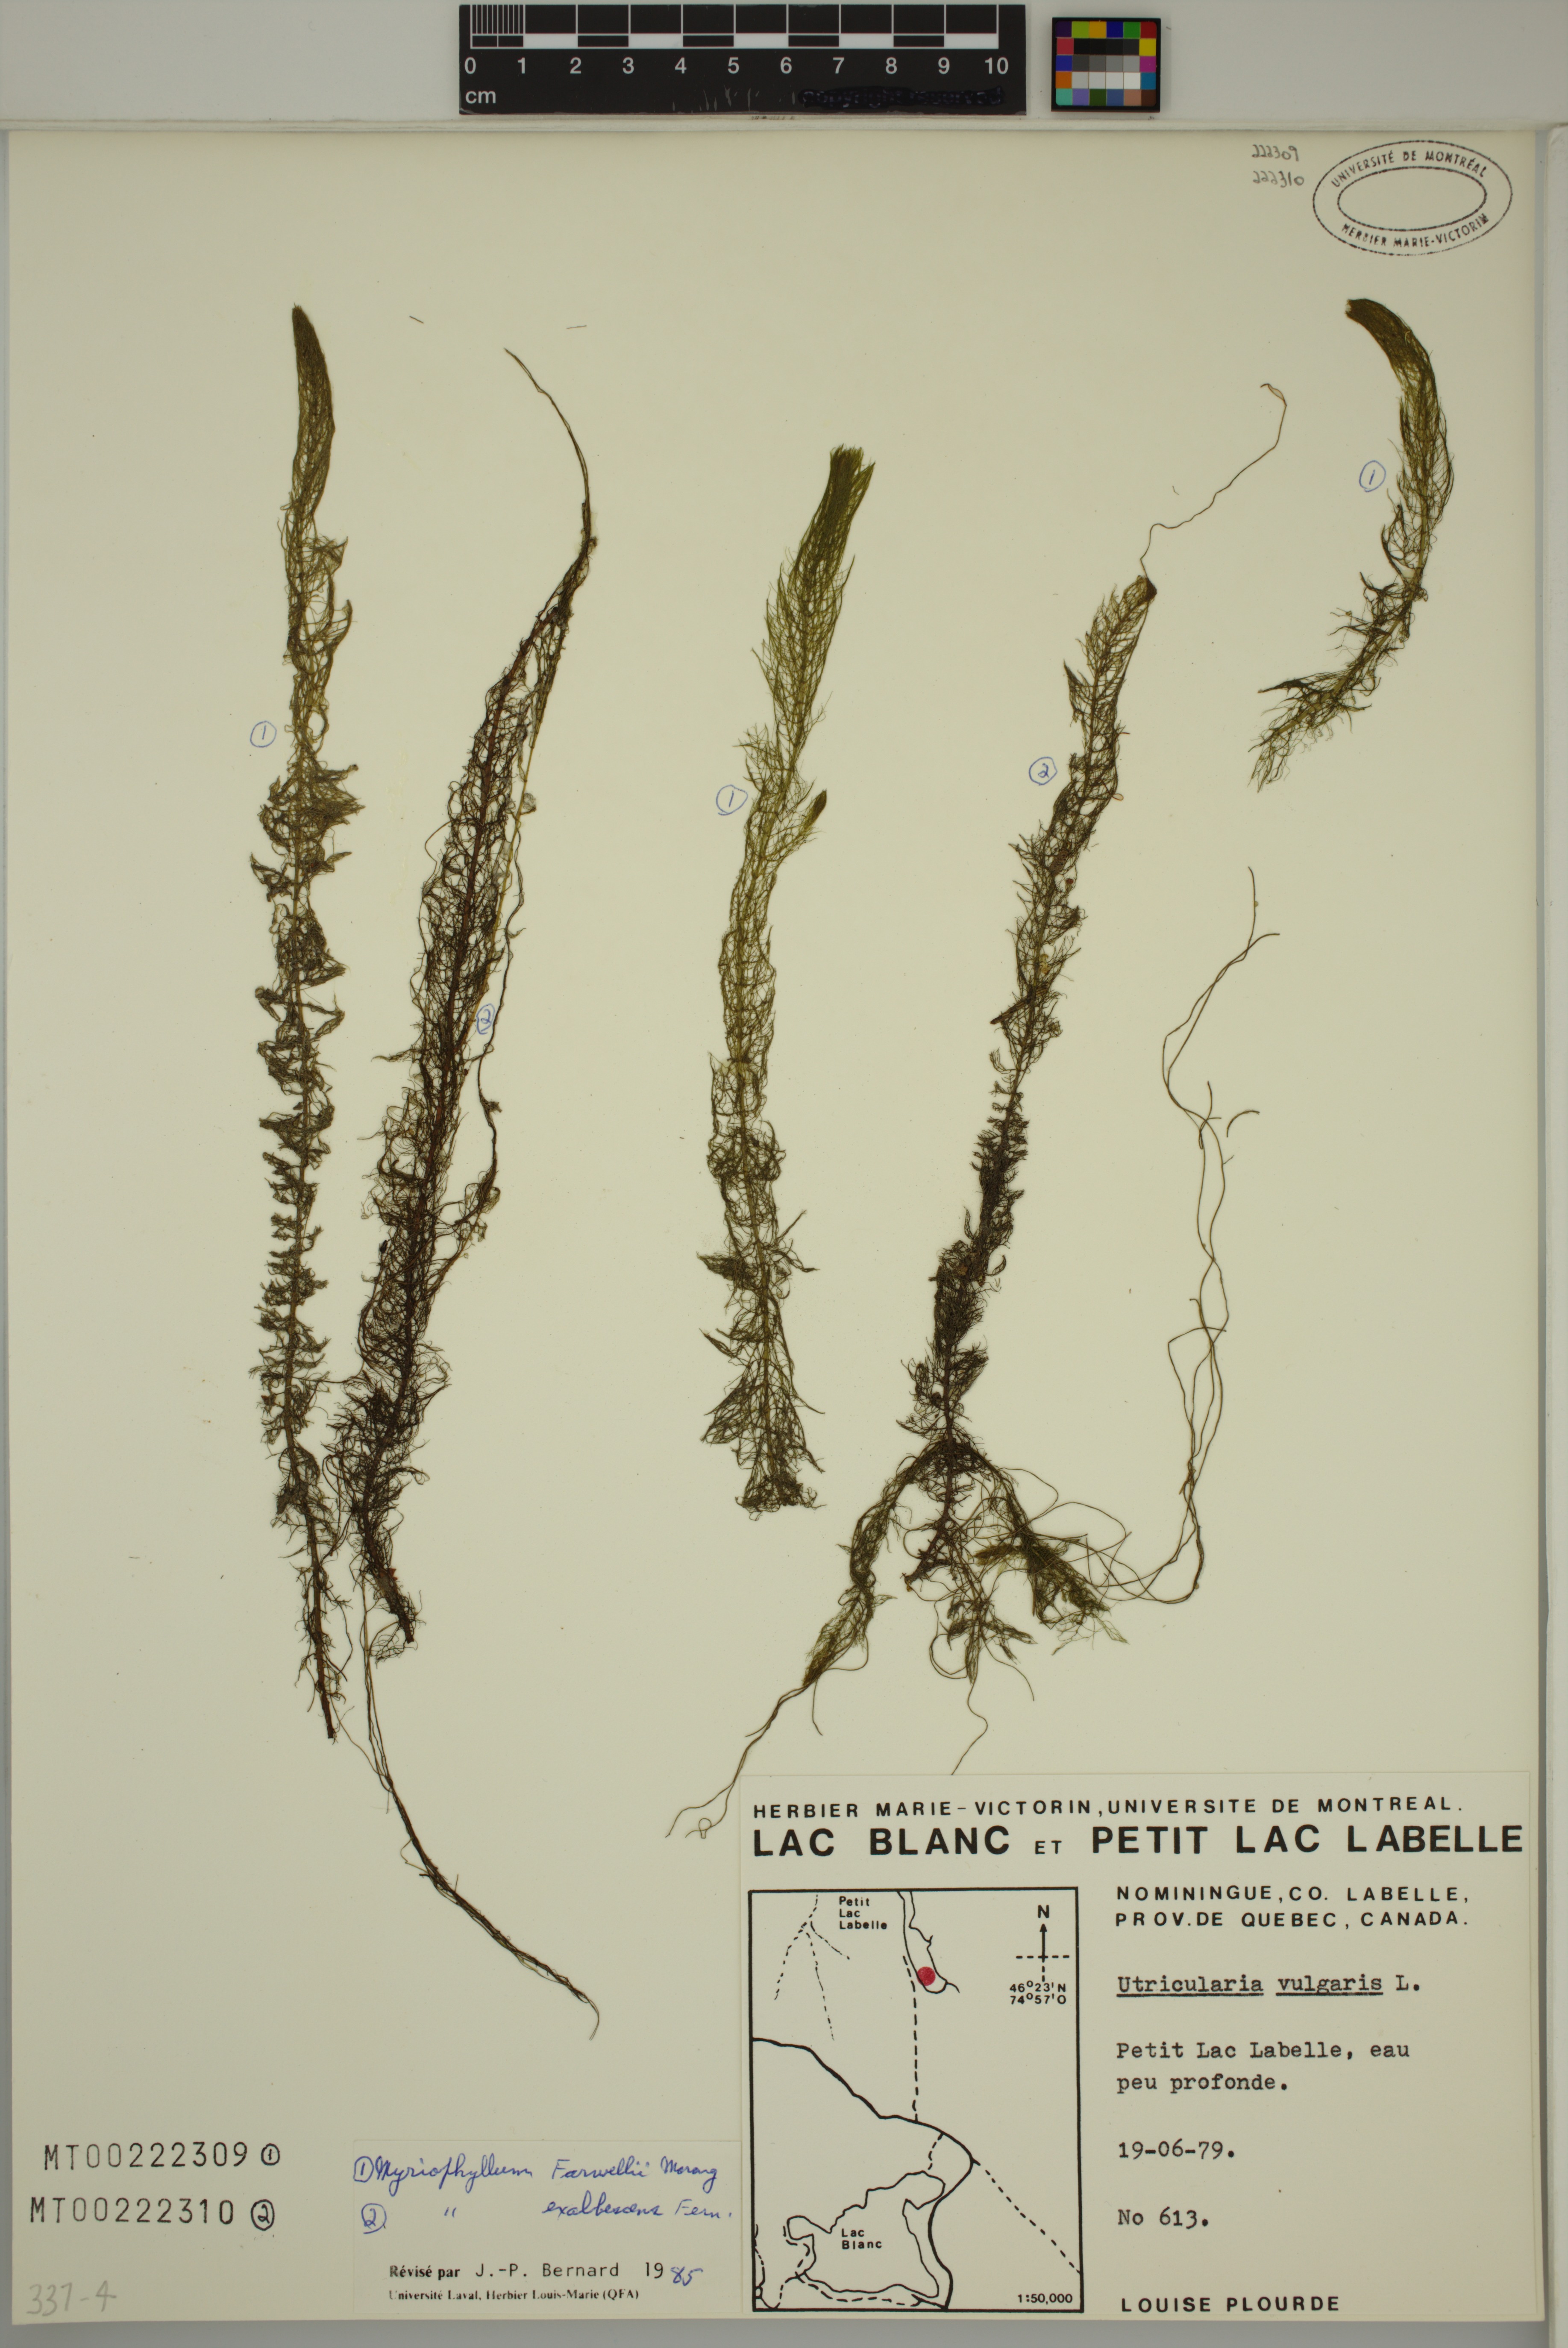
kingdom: Plantae
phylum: Tracheophyta
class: Magnoliopsida
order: Saxifragales
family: Haloragaceae
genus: Myriophyllum
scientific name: Myriophyllum sibiricum
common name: Siberian water-milfoil
